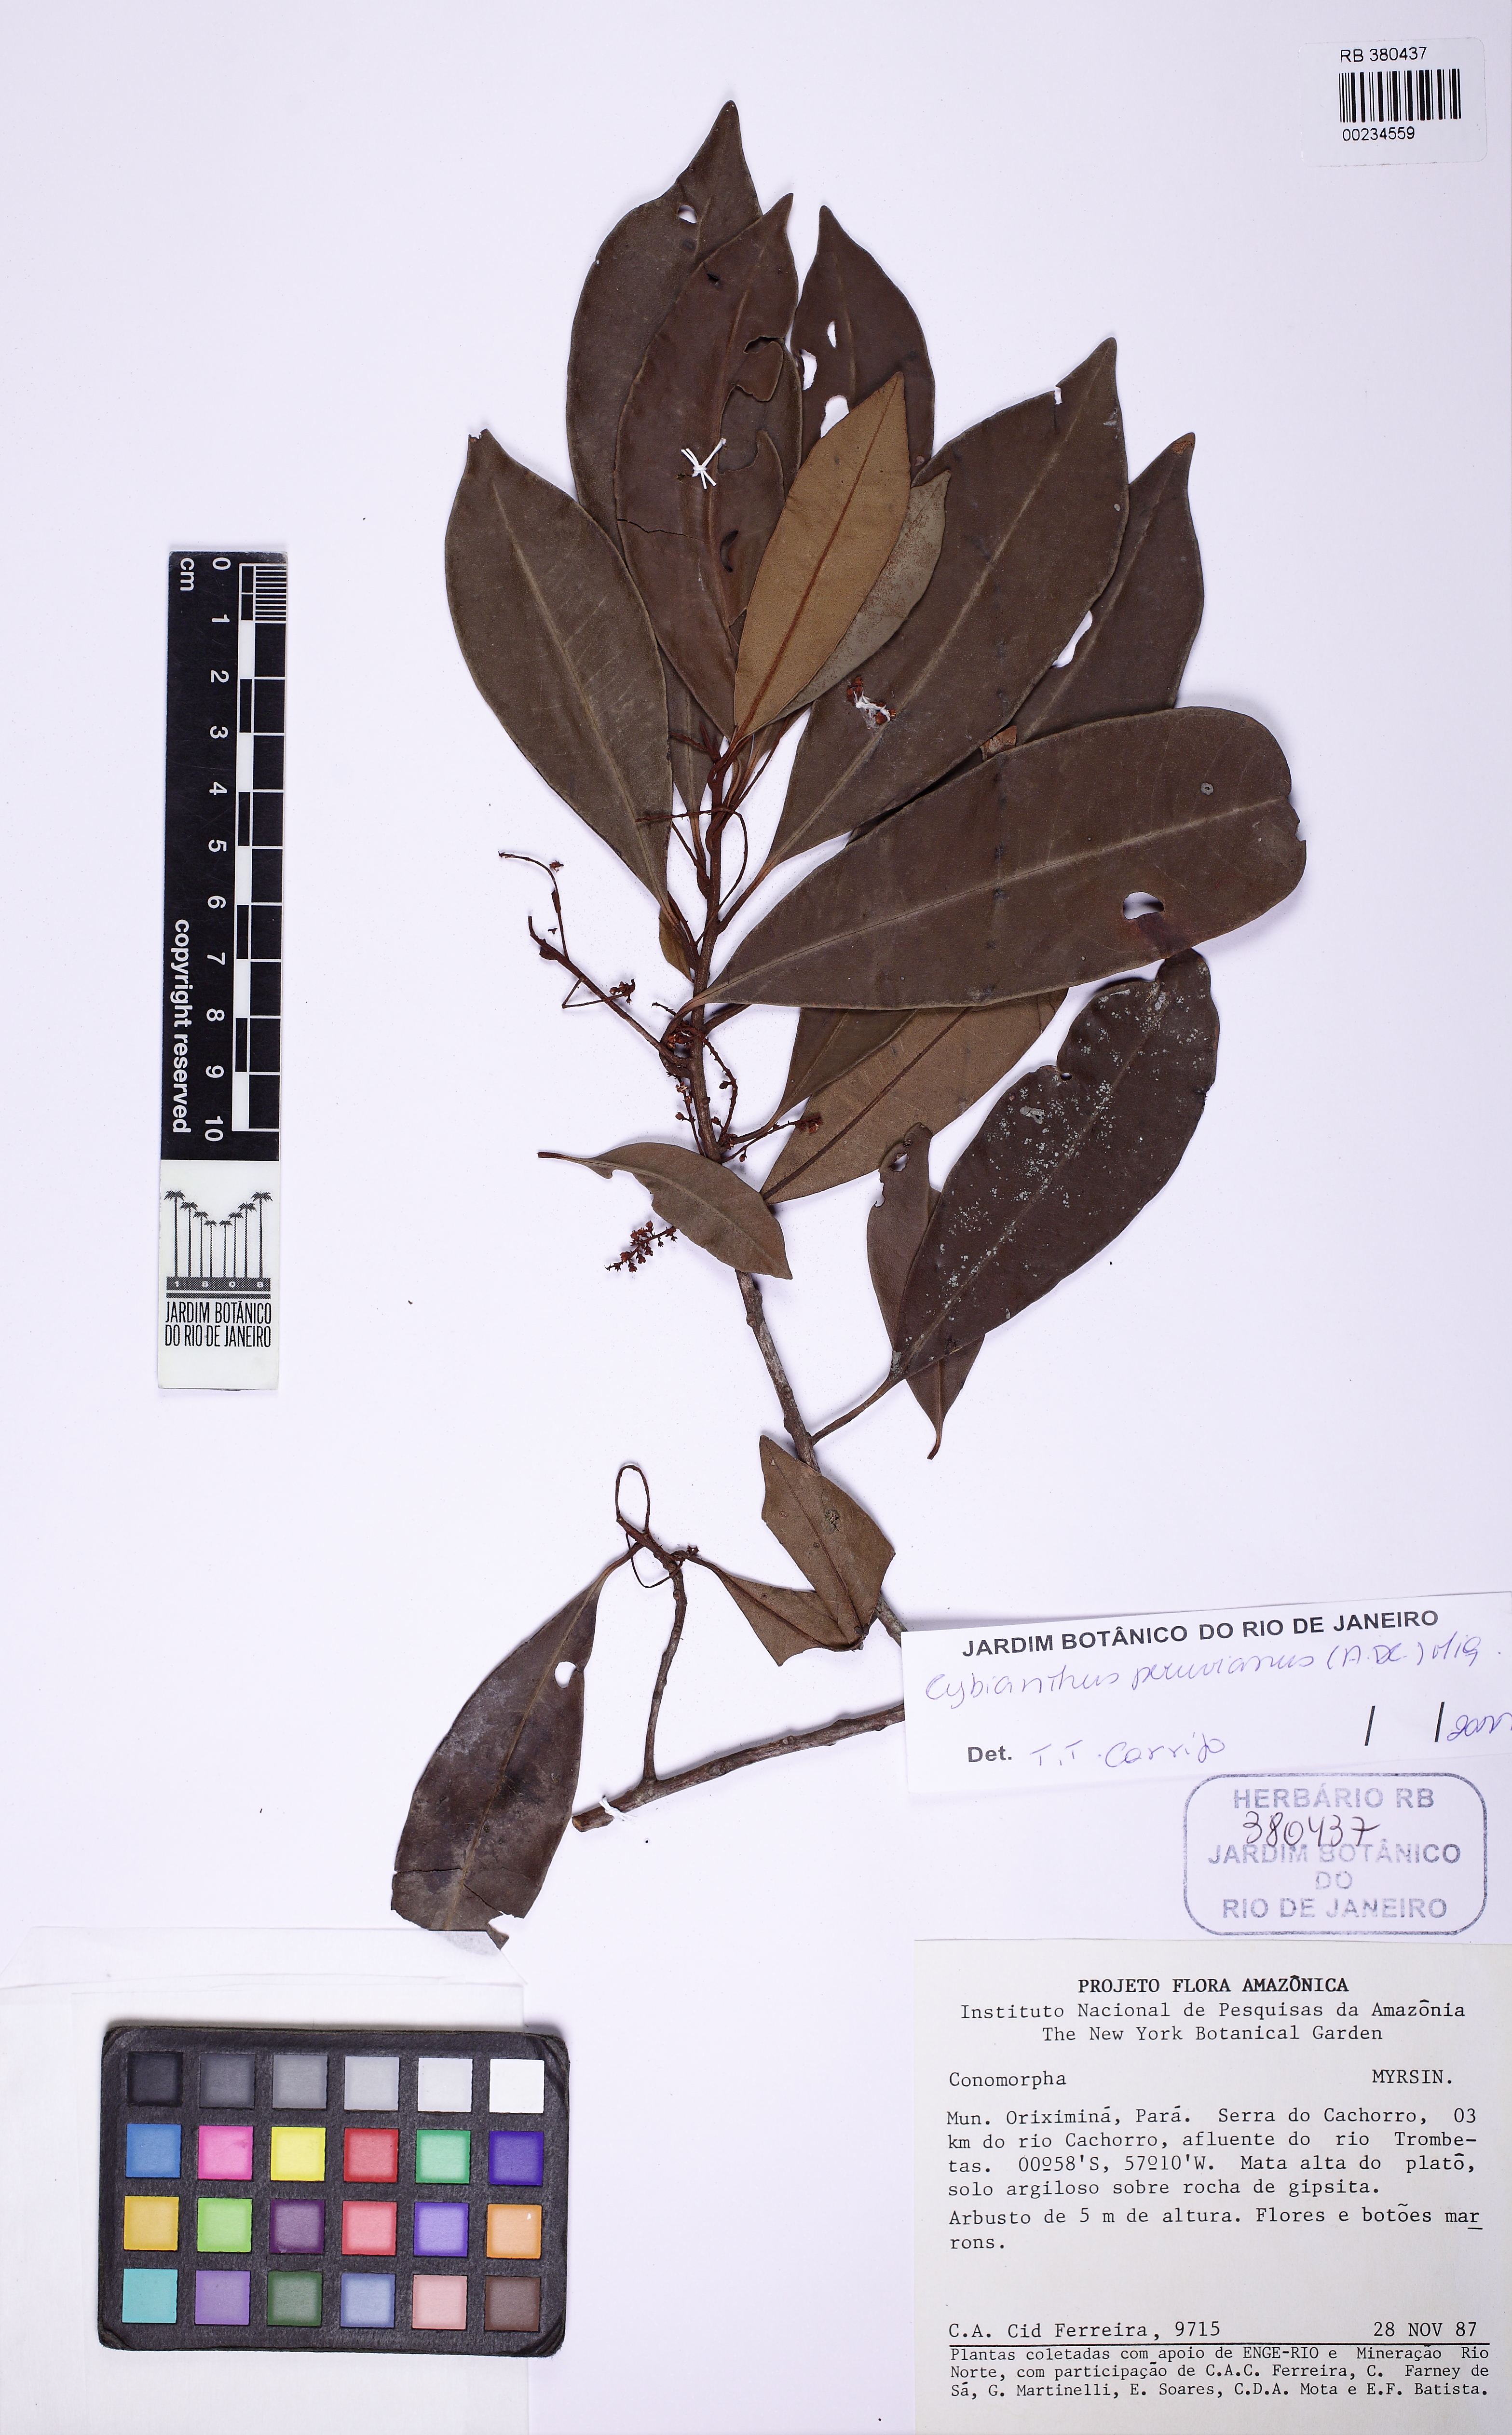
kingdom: Plantae
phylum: Tracheophyta
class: Magnoliopsida
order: Ericales
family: Primulaceae
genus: Cybianthus
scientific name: Cybianthus peruvianus
